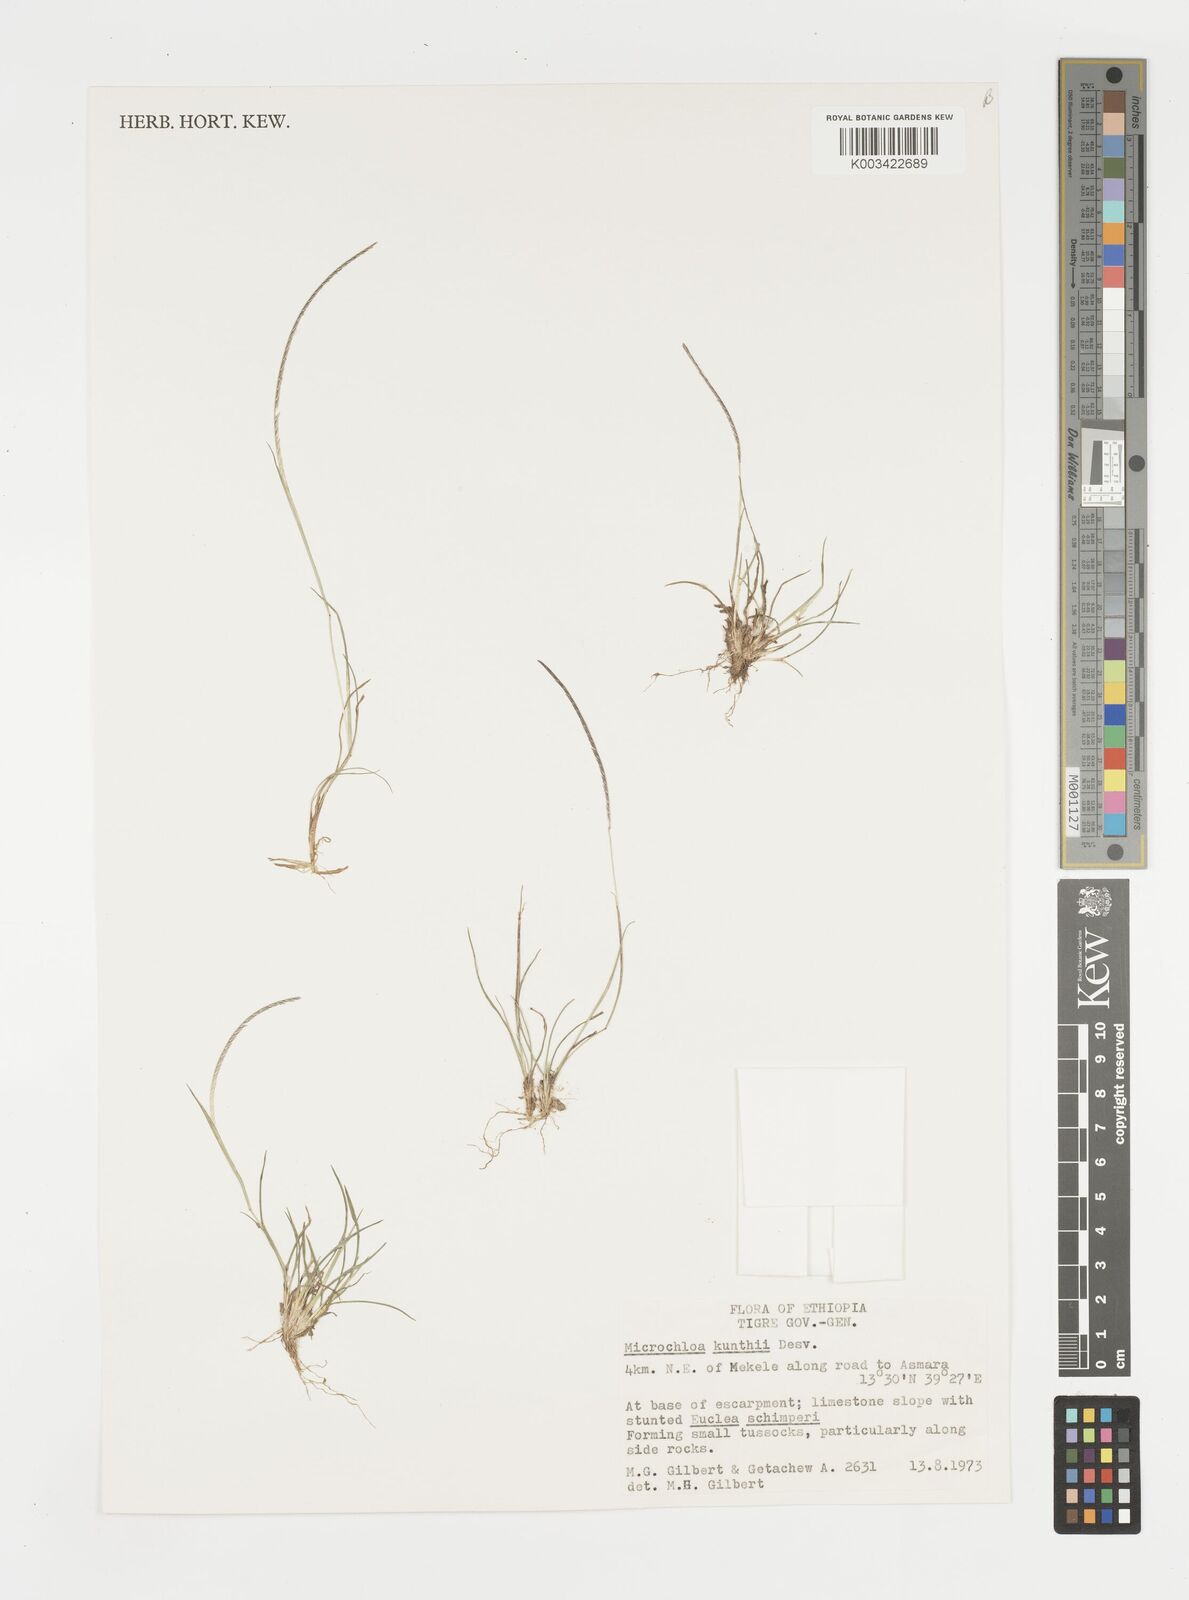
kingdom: Plantae
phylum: Tracheophyta
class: Liliopsida
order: Poales
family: Poaceae
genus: Microchloa
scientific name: Microchloa kunthii
